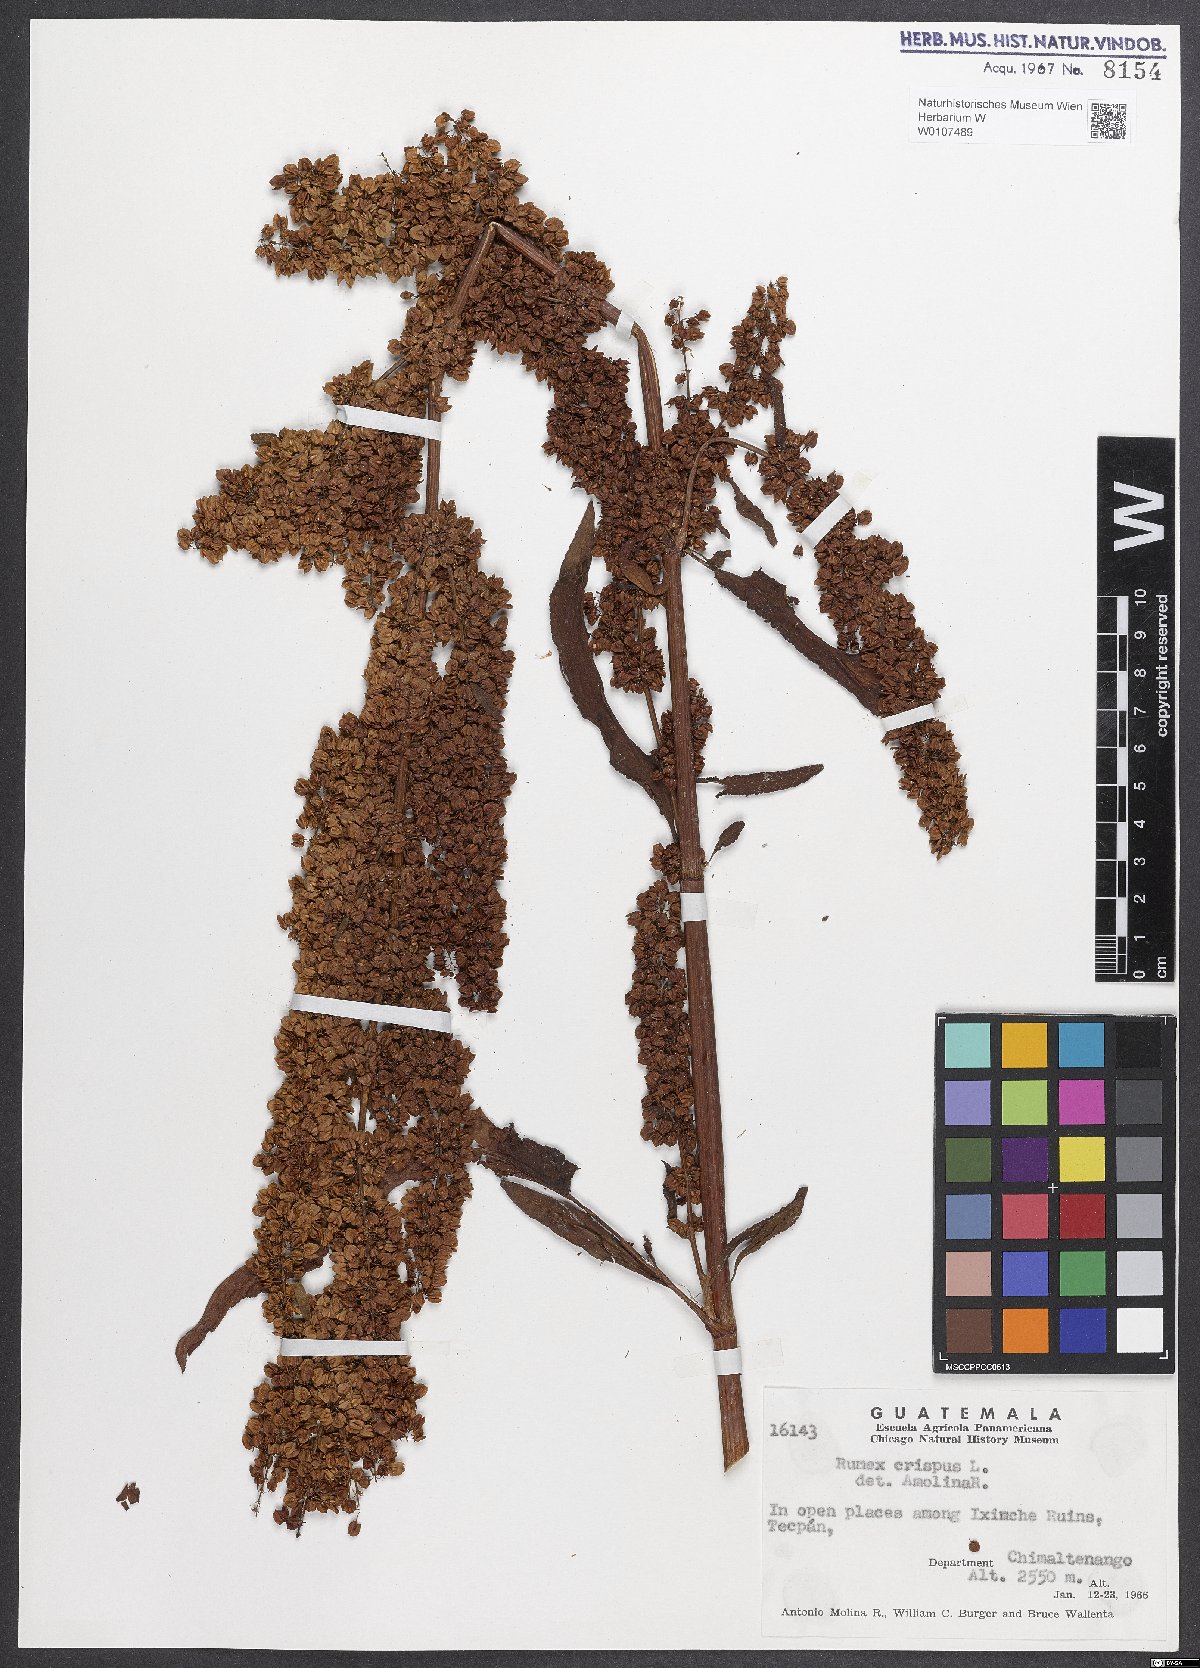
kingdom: Plantae
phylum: Tracheophyta
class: Magnoliopsida
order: Caryophyllales
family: Polygonaceae
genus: Rumex
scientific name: Rumex crispus
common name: Curled dock
